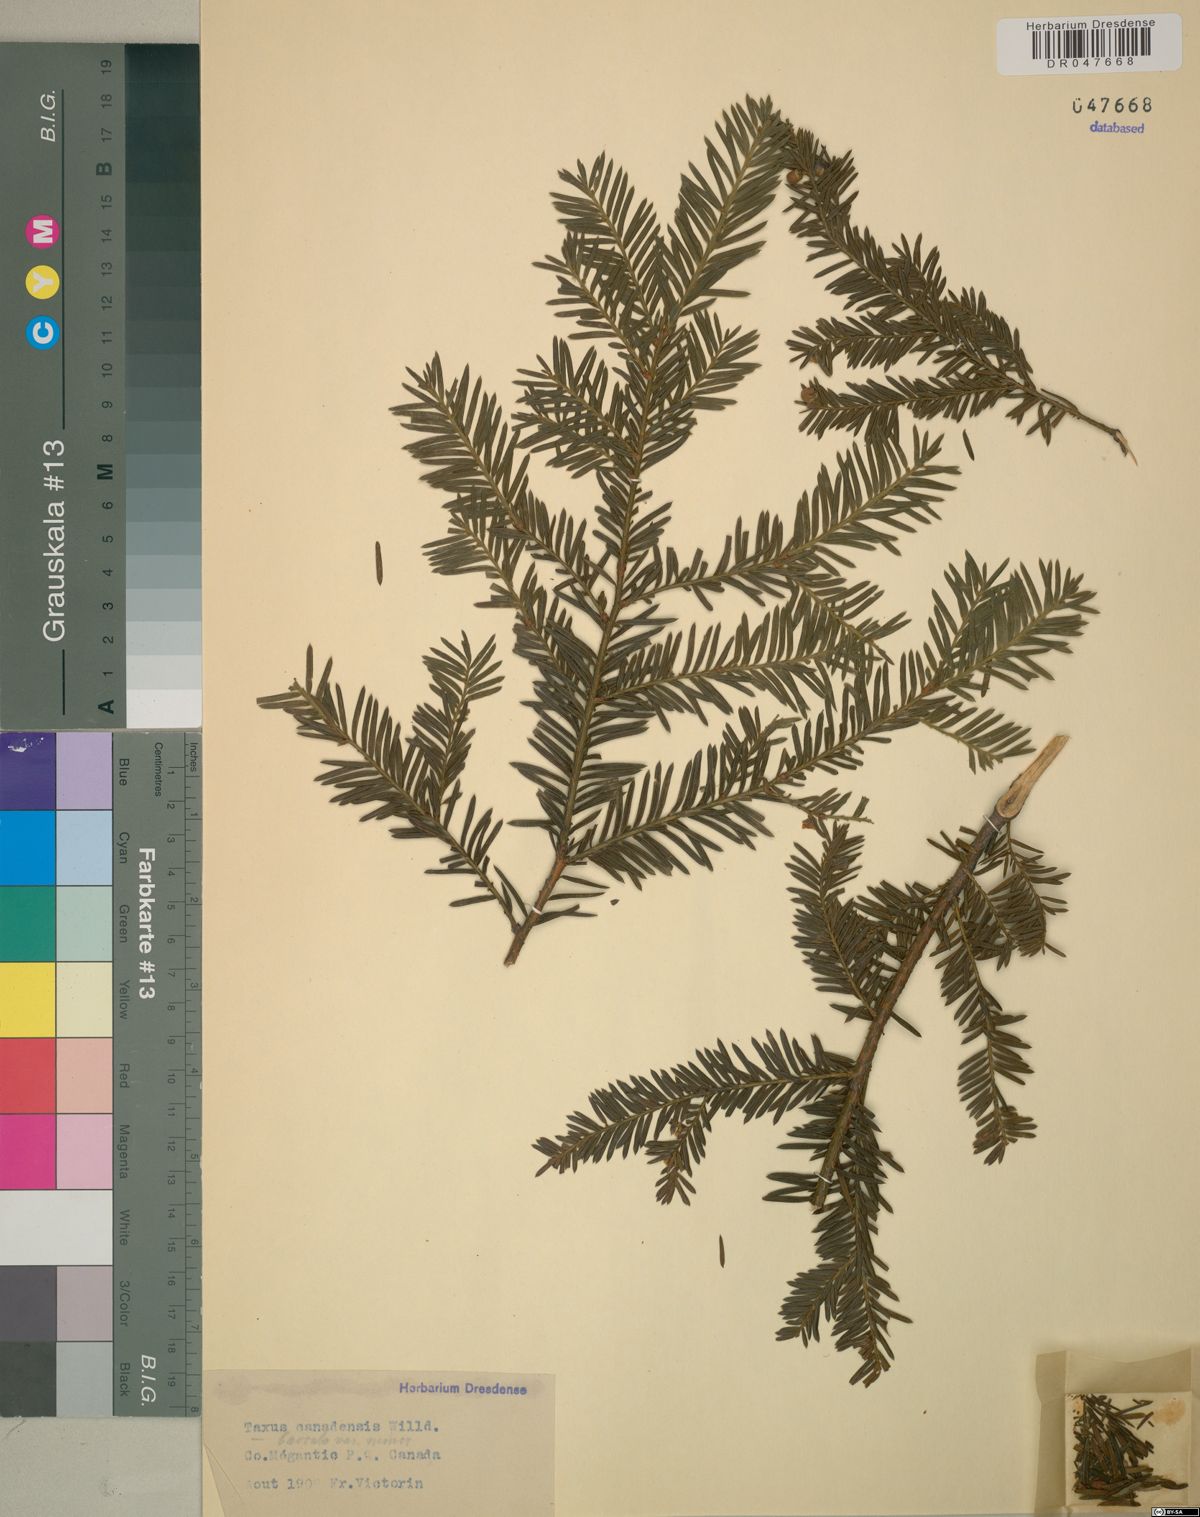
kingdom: Plantae
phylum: Tracheophyta
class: Pinopsida
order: Pinales
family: Taxaceae
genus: Taxus
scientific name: Taxus canadensis
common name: American yew
